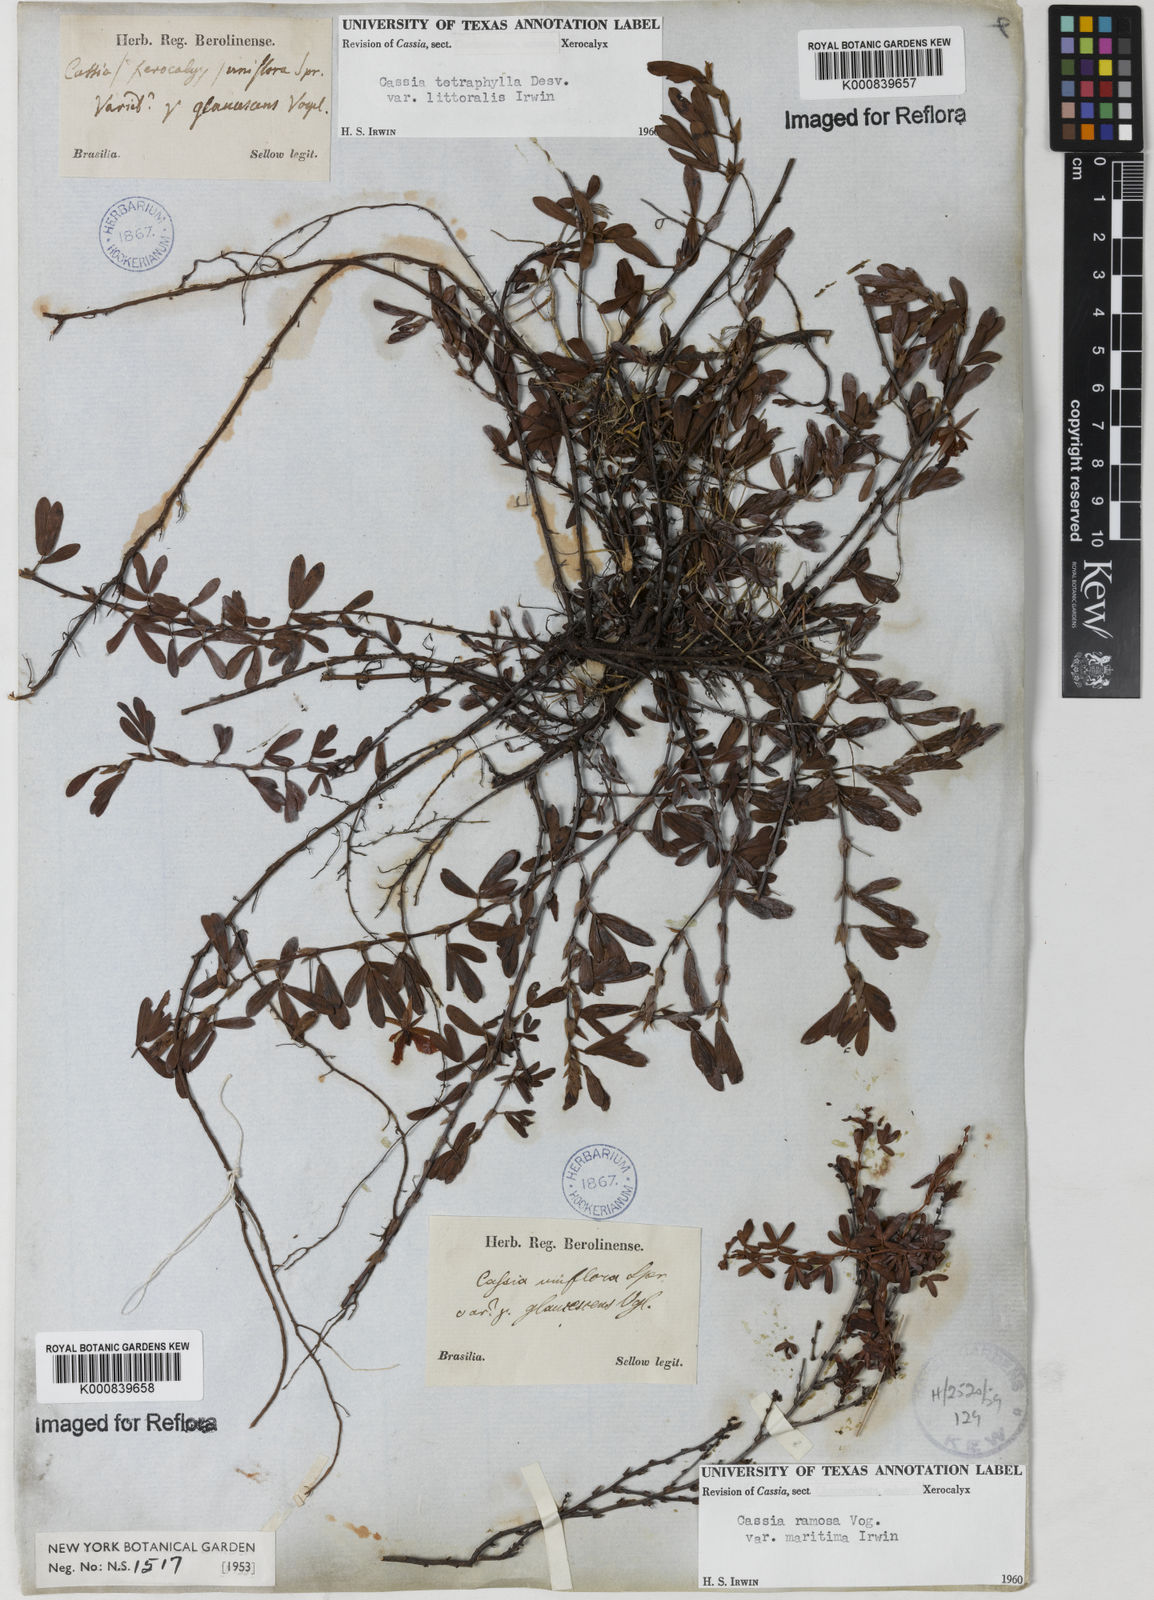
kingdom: Plantae
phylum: Tracheophyta
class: Magnoliopsida
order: Fabales
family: Fabaceae
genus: Chamaecrista
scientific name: Chamaecrista desvauxii
